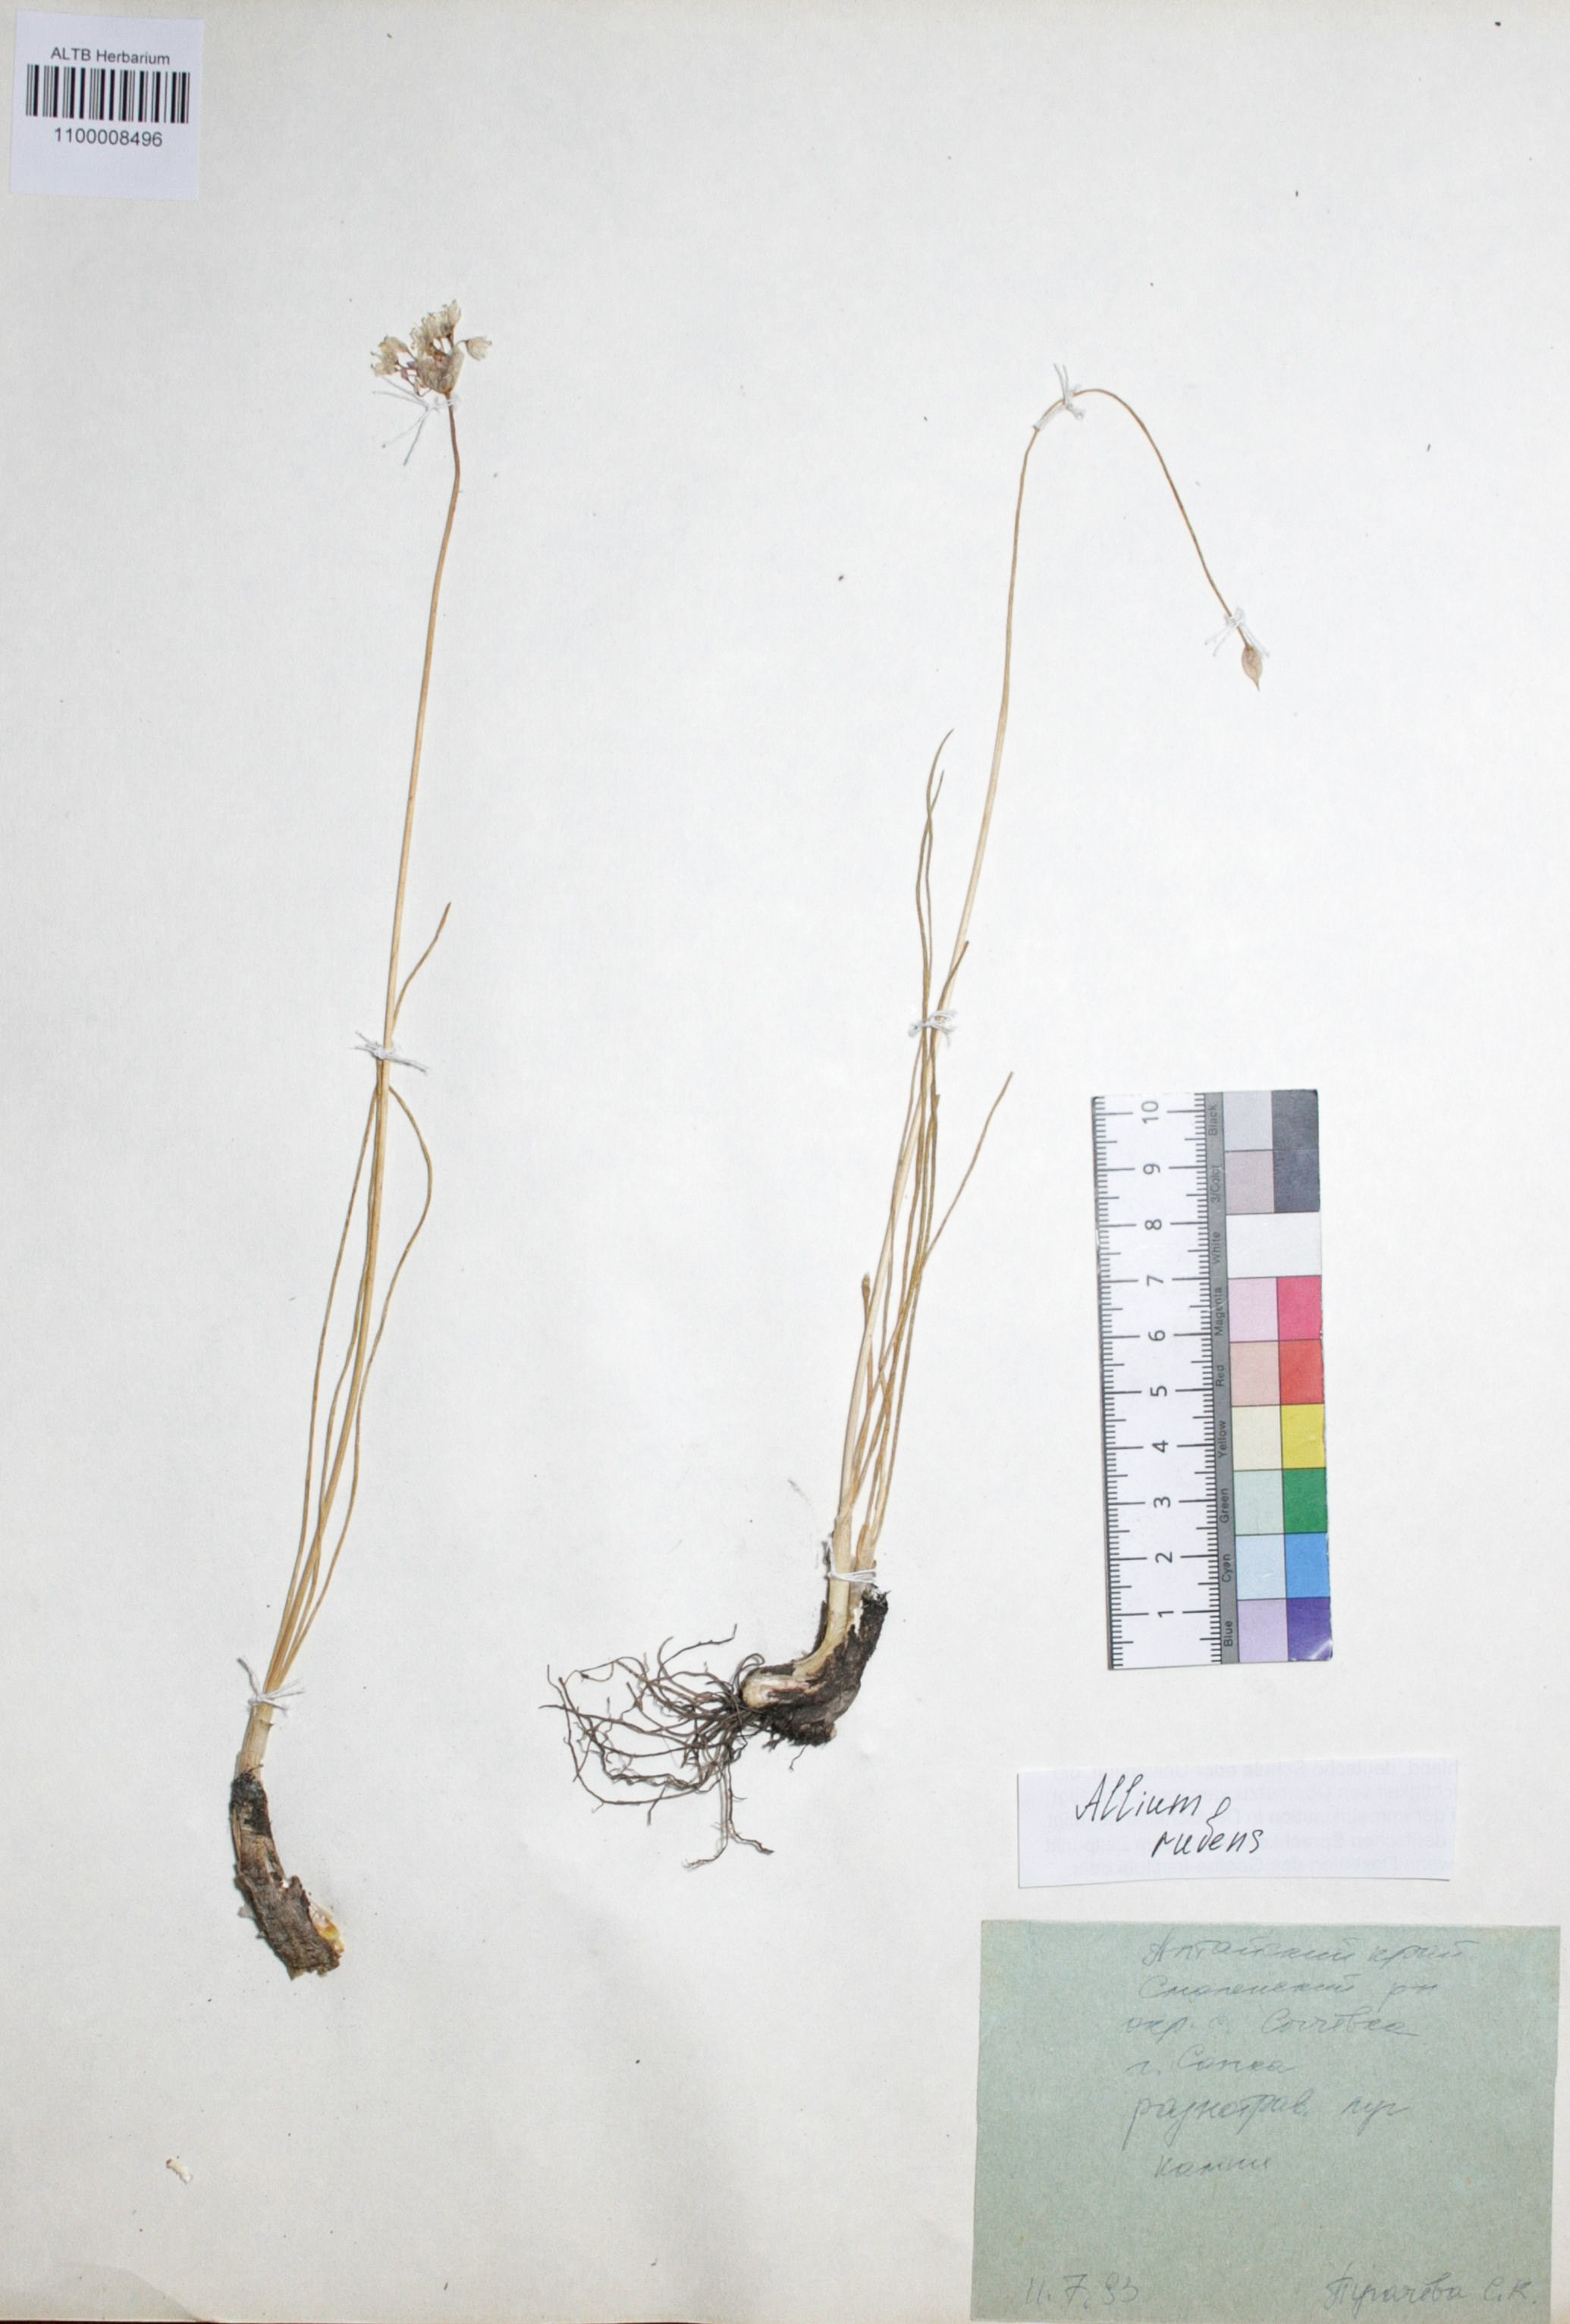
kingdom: Plantae
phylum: Tracheophyta
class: Liliopsida
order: Asparagales
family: Amaryllidaceae
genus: Allium
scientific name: Allium rubens
